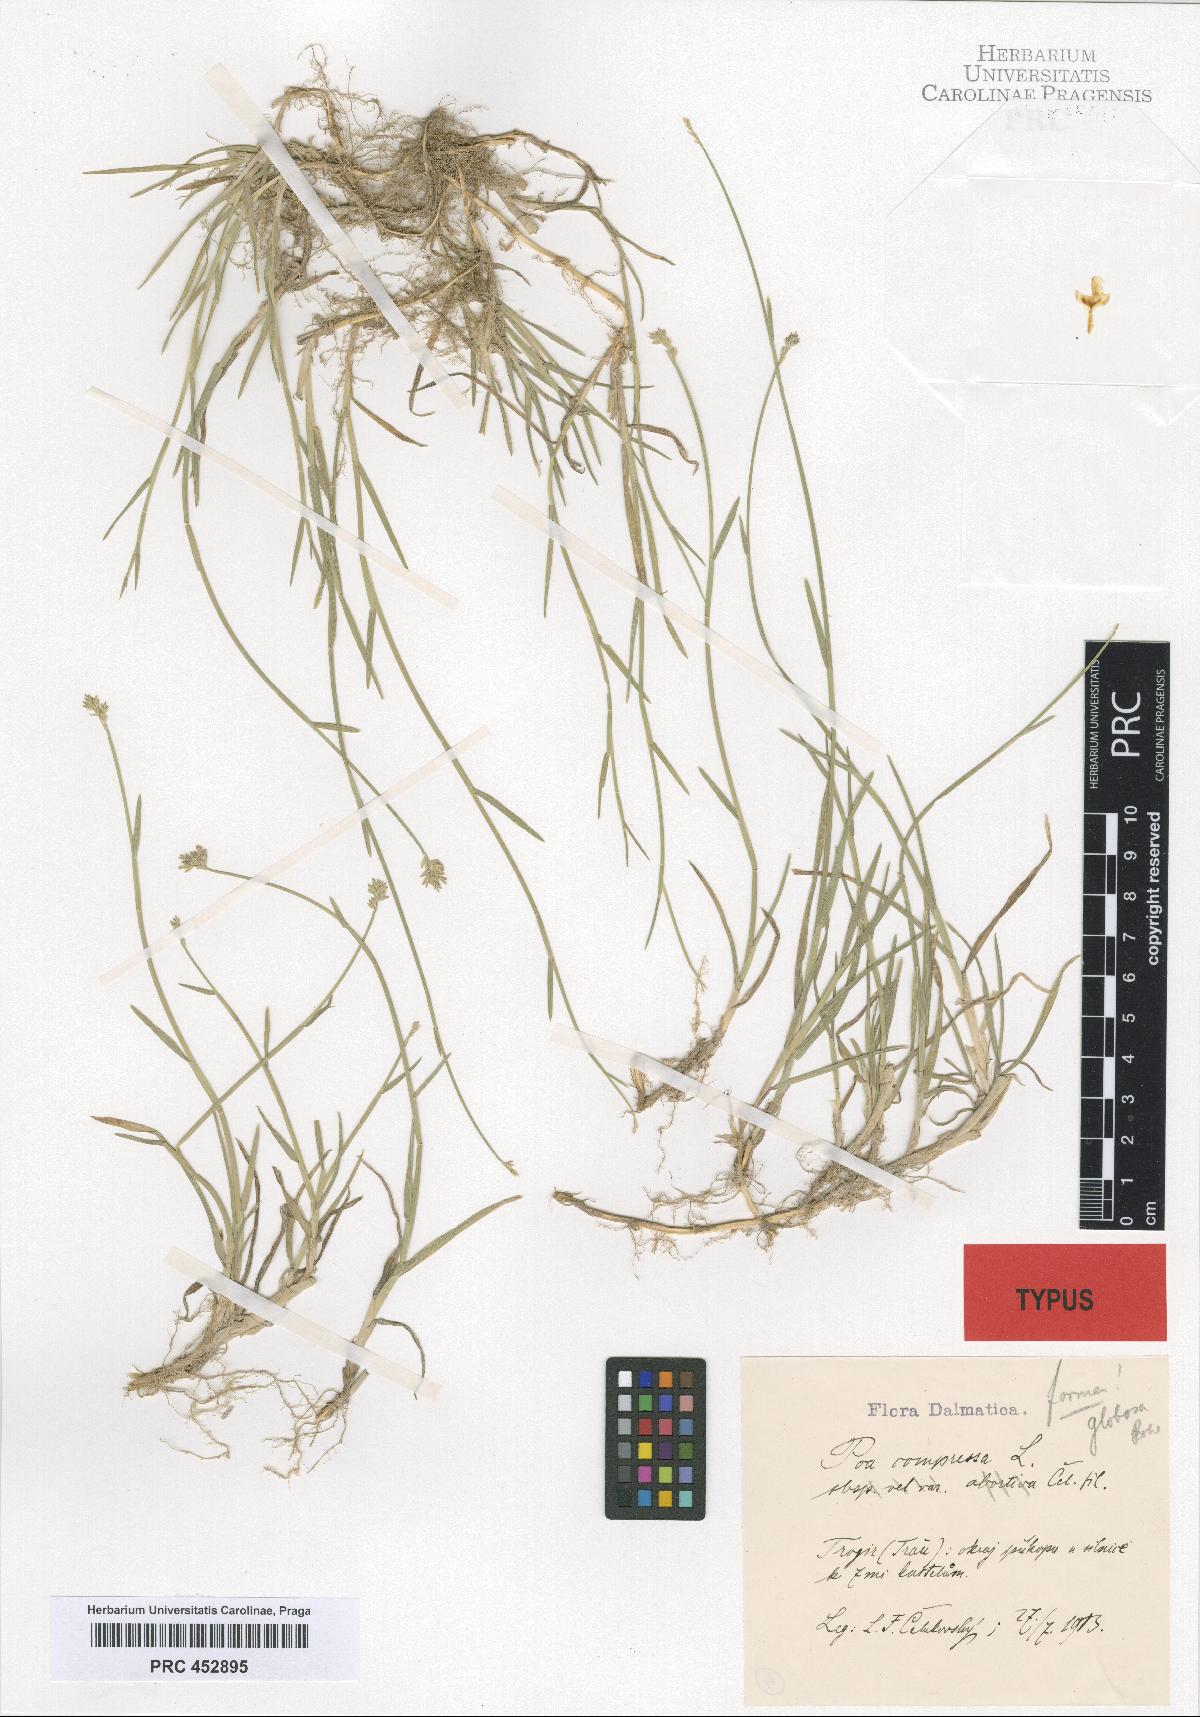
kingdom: Plantae
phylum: Tracheophyta
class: Liliopsida
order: Poales
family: Poaceae
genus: Poa
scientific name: Poa compressa
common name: Canada bluegrass
